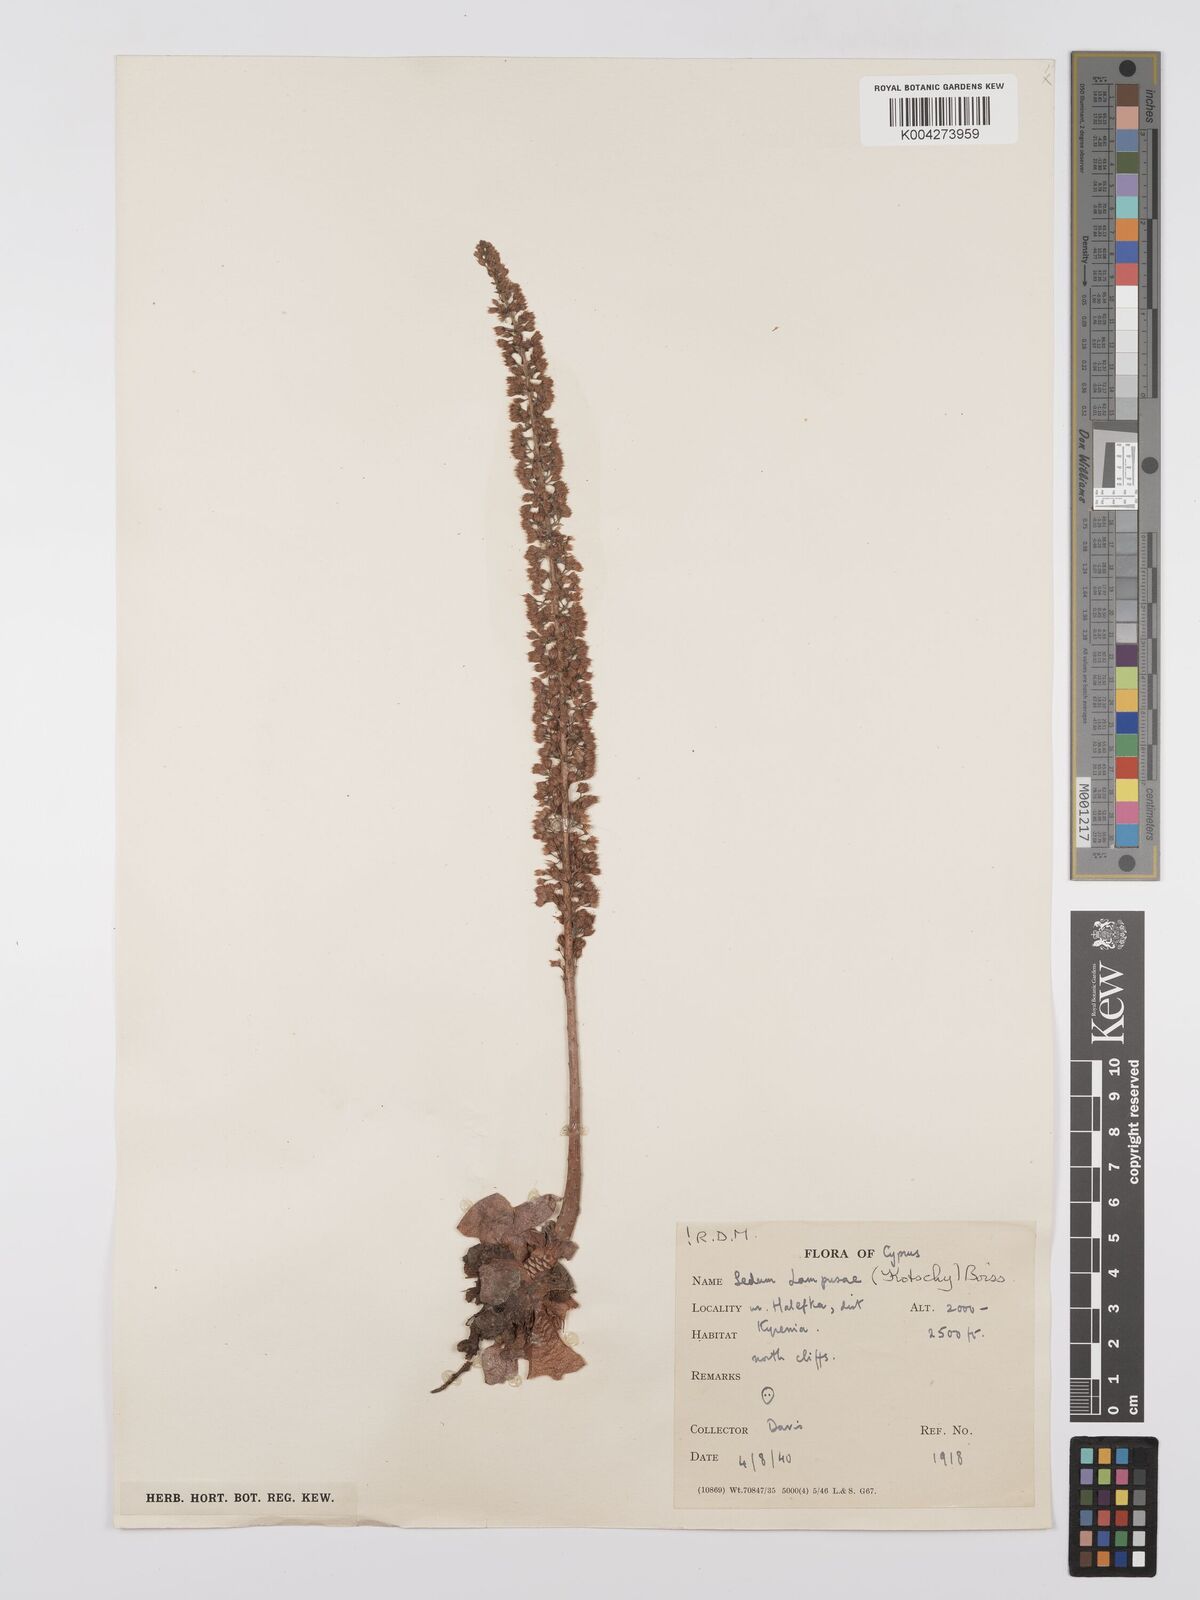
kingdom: Plantae
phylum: Tracheophyta
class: Magnoliopsida
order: Saxifragales
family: Crassulaceae
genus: Sedum
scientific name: Sedum lampusae
